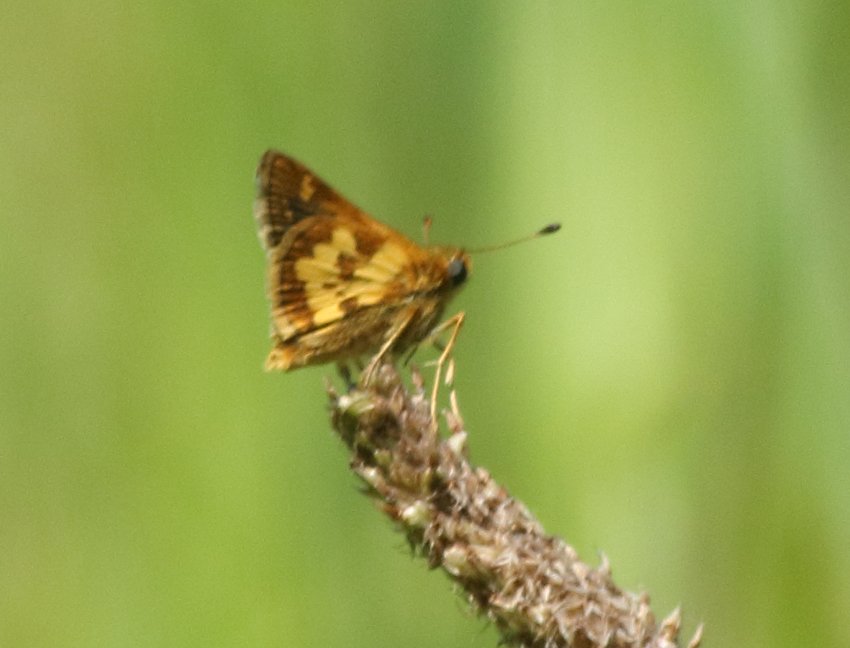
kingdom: Animalia
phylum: Arthropoda
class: Insecta
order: Lepidoptera
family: Hesperiidae
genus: Polites
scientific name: Polites coras
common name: Peck's Skipper
